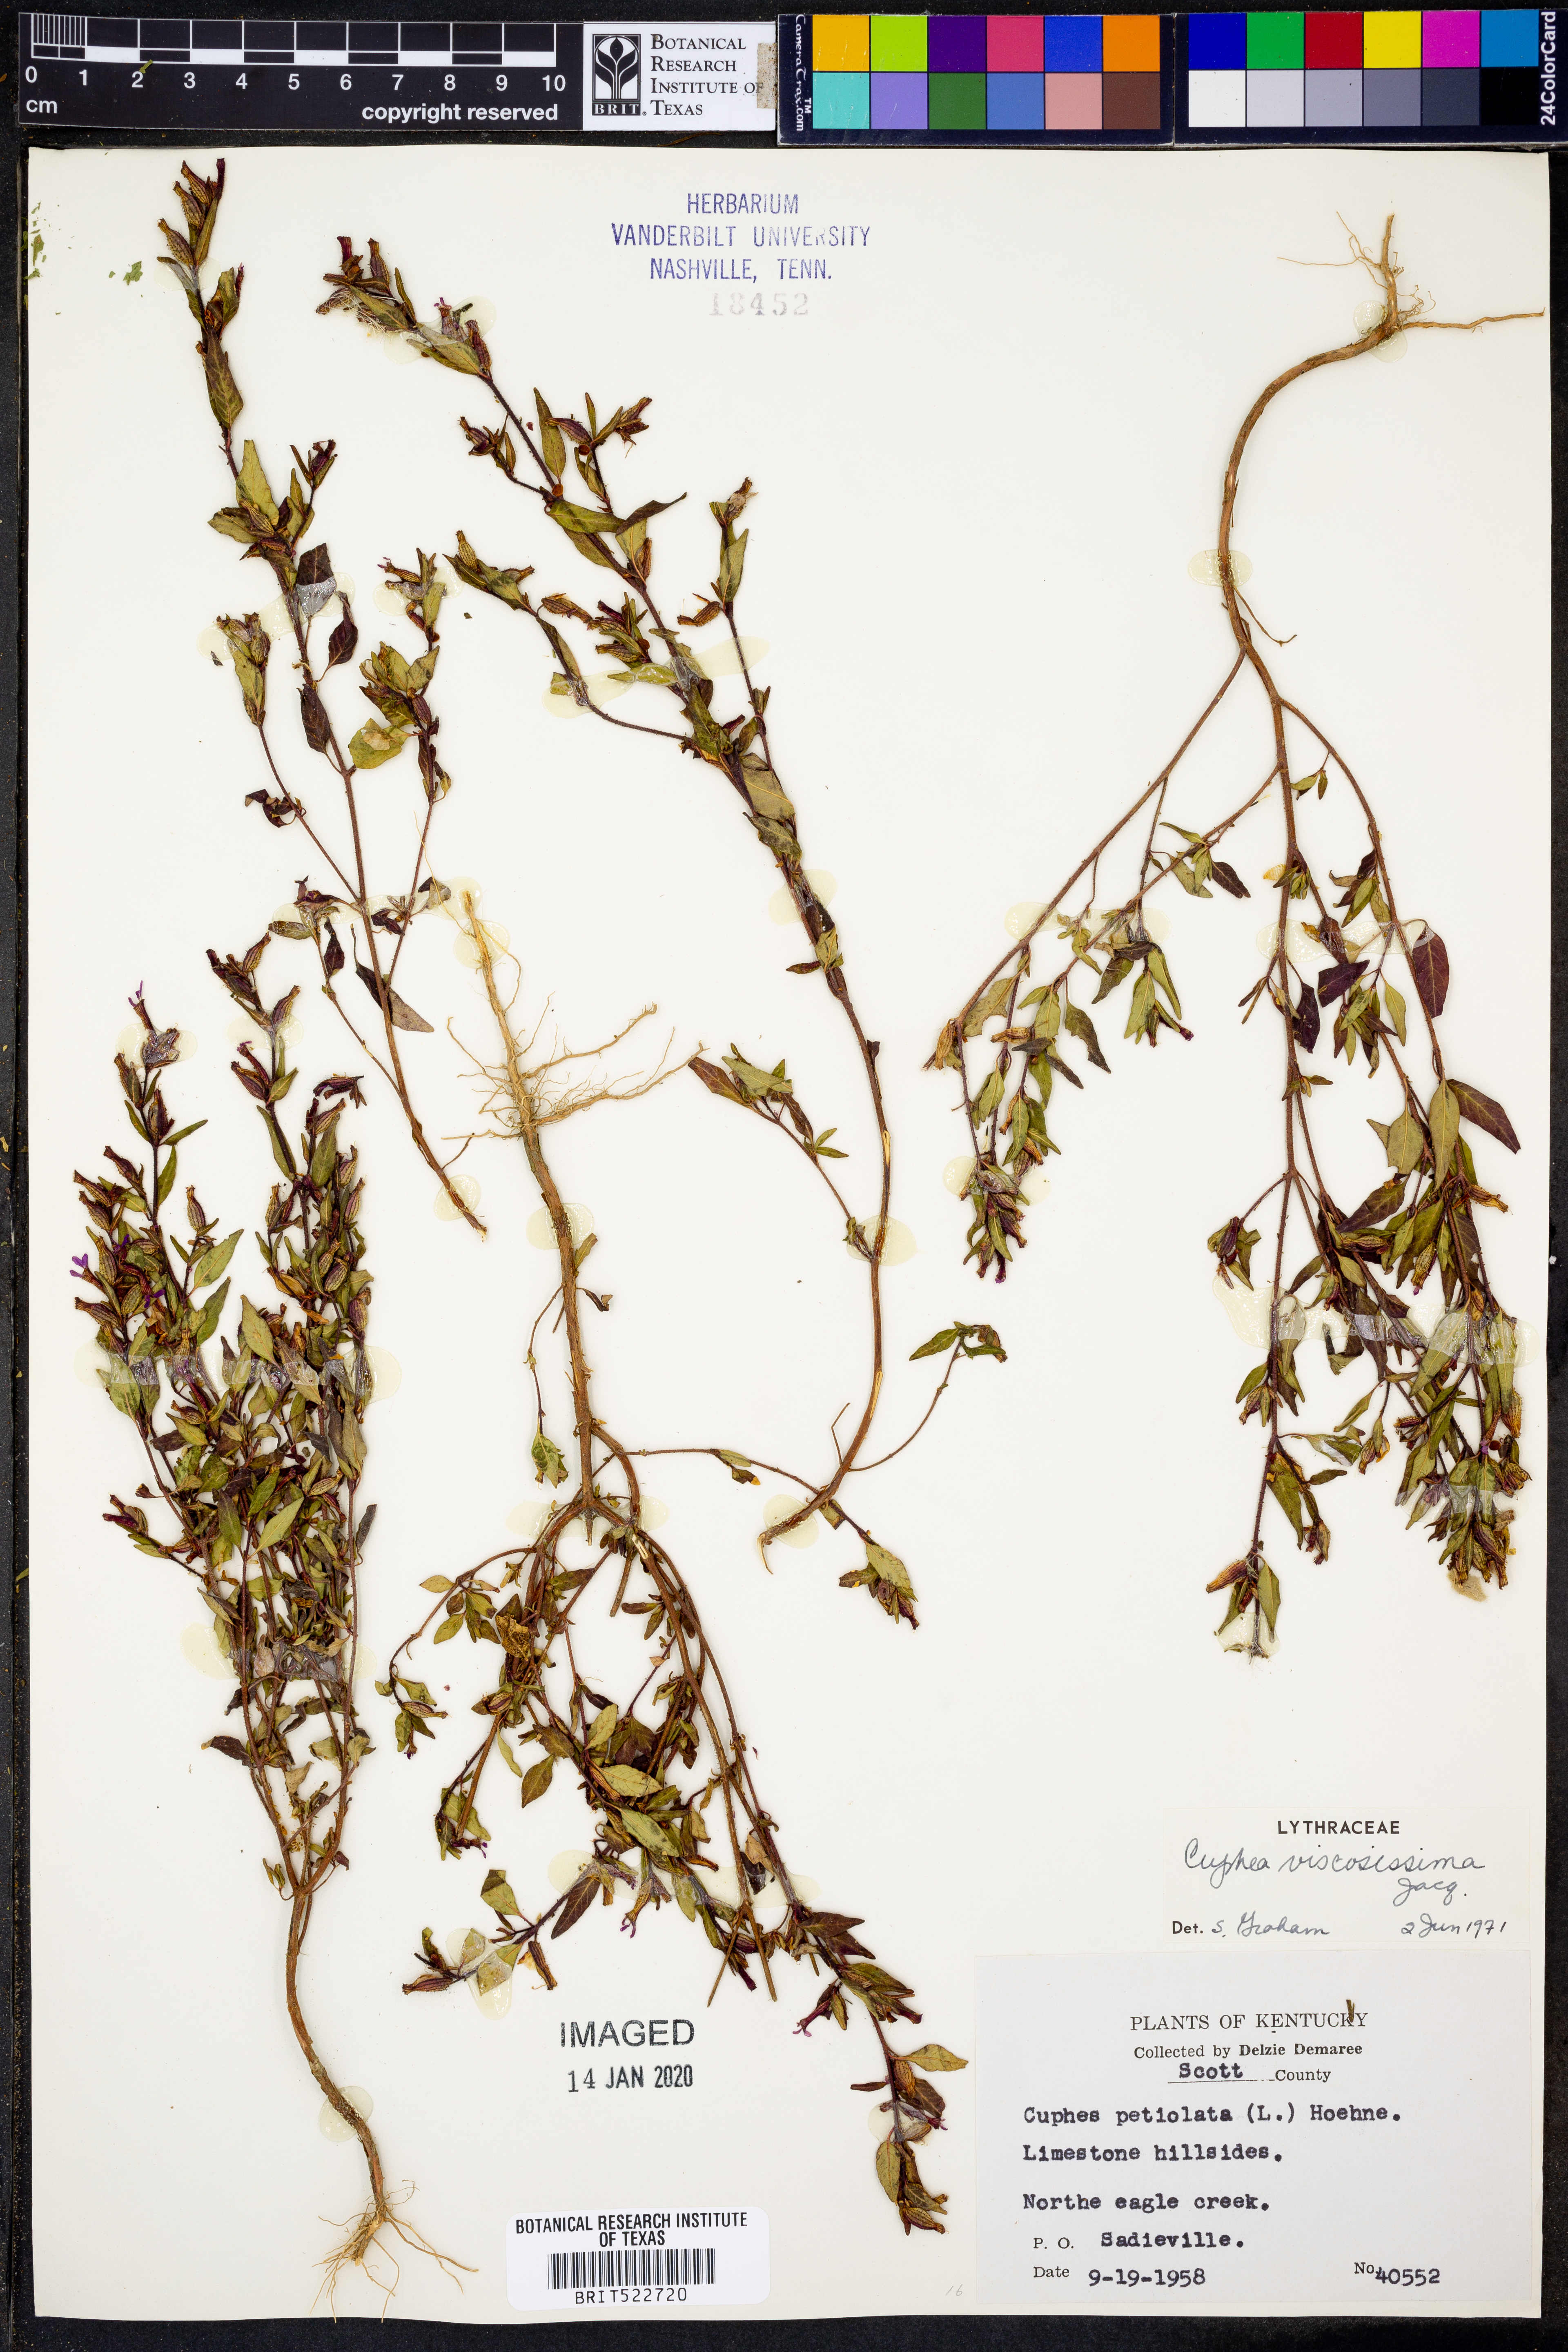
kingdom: Plantae
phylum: Tracheophyta
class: Magnoliopsida
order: Myrtales
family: Lythraceae
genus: Cuphea
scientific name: Cuphea viscosissima
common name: Clammy cuphea
